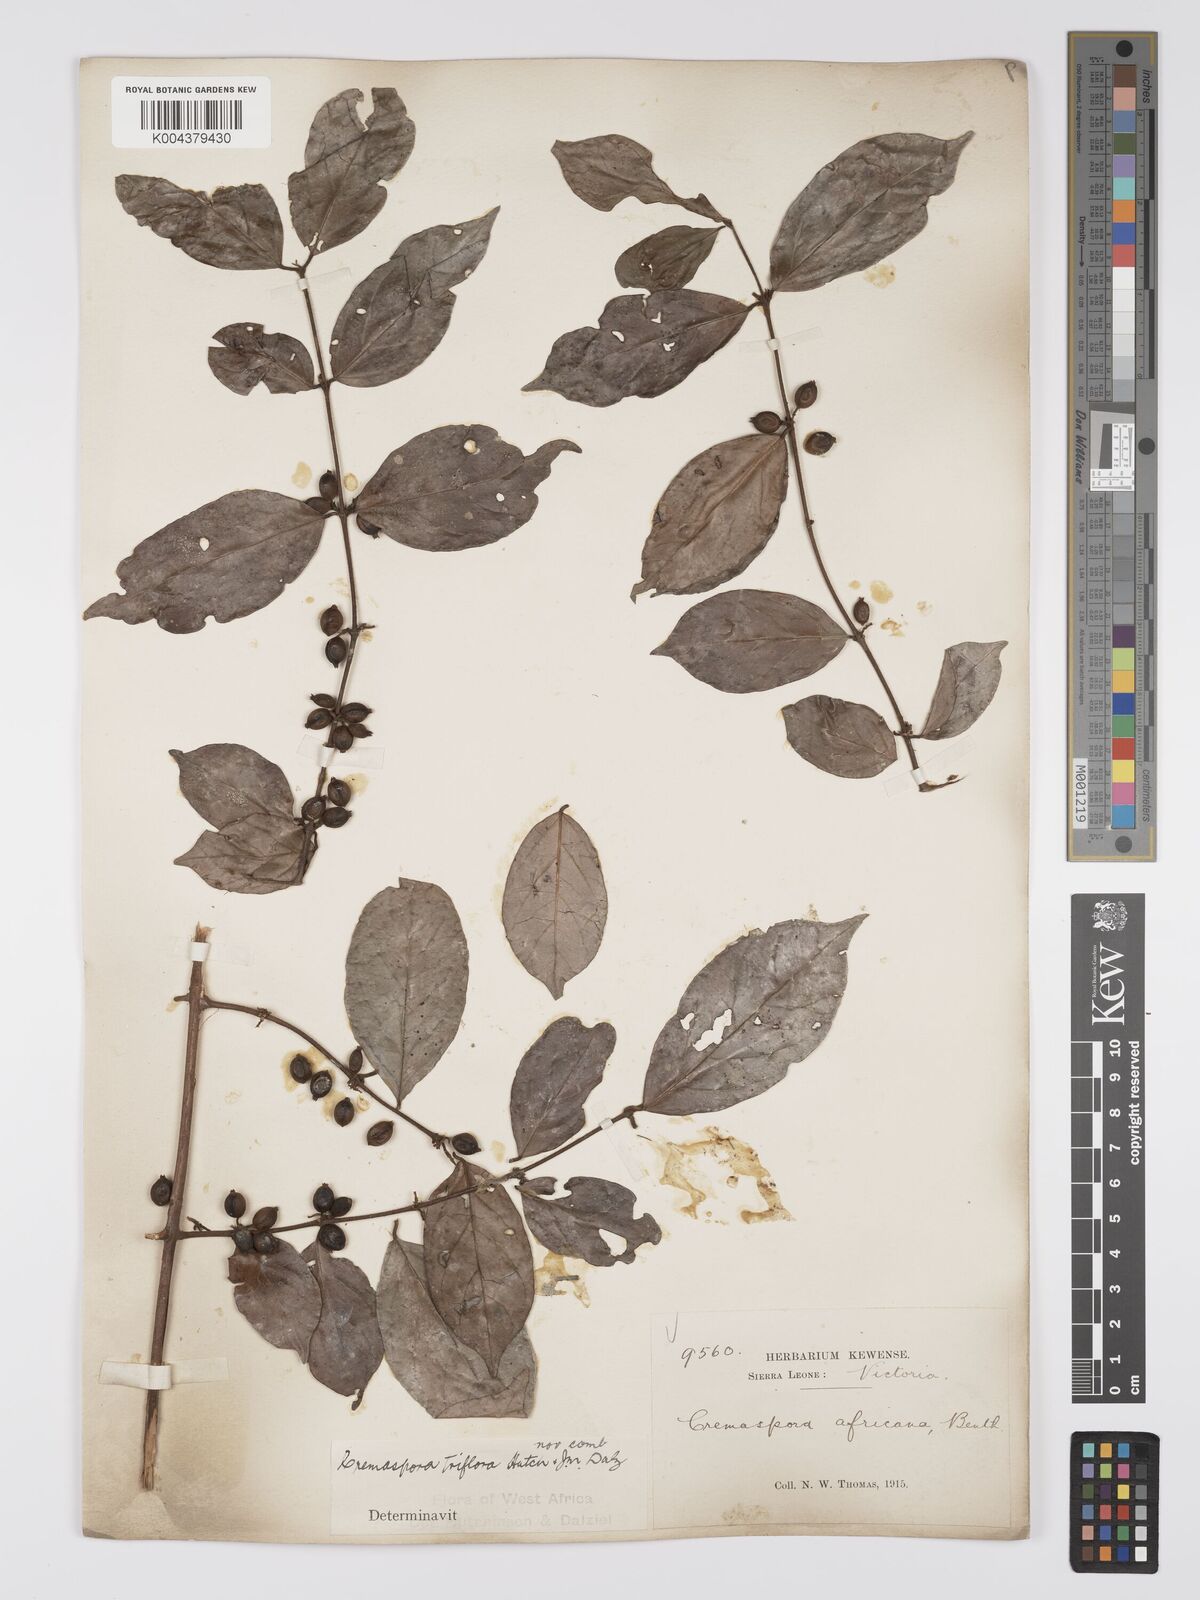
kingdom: Plantae
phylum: Tracheophyta
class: Magnoliopsida
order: Gentianales
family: Rubiaceae
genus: Cremaspora
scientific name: Cremaspora triflora
